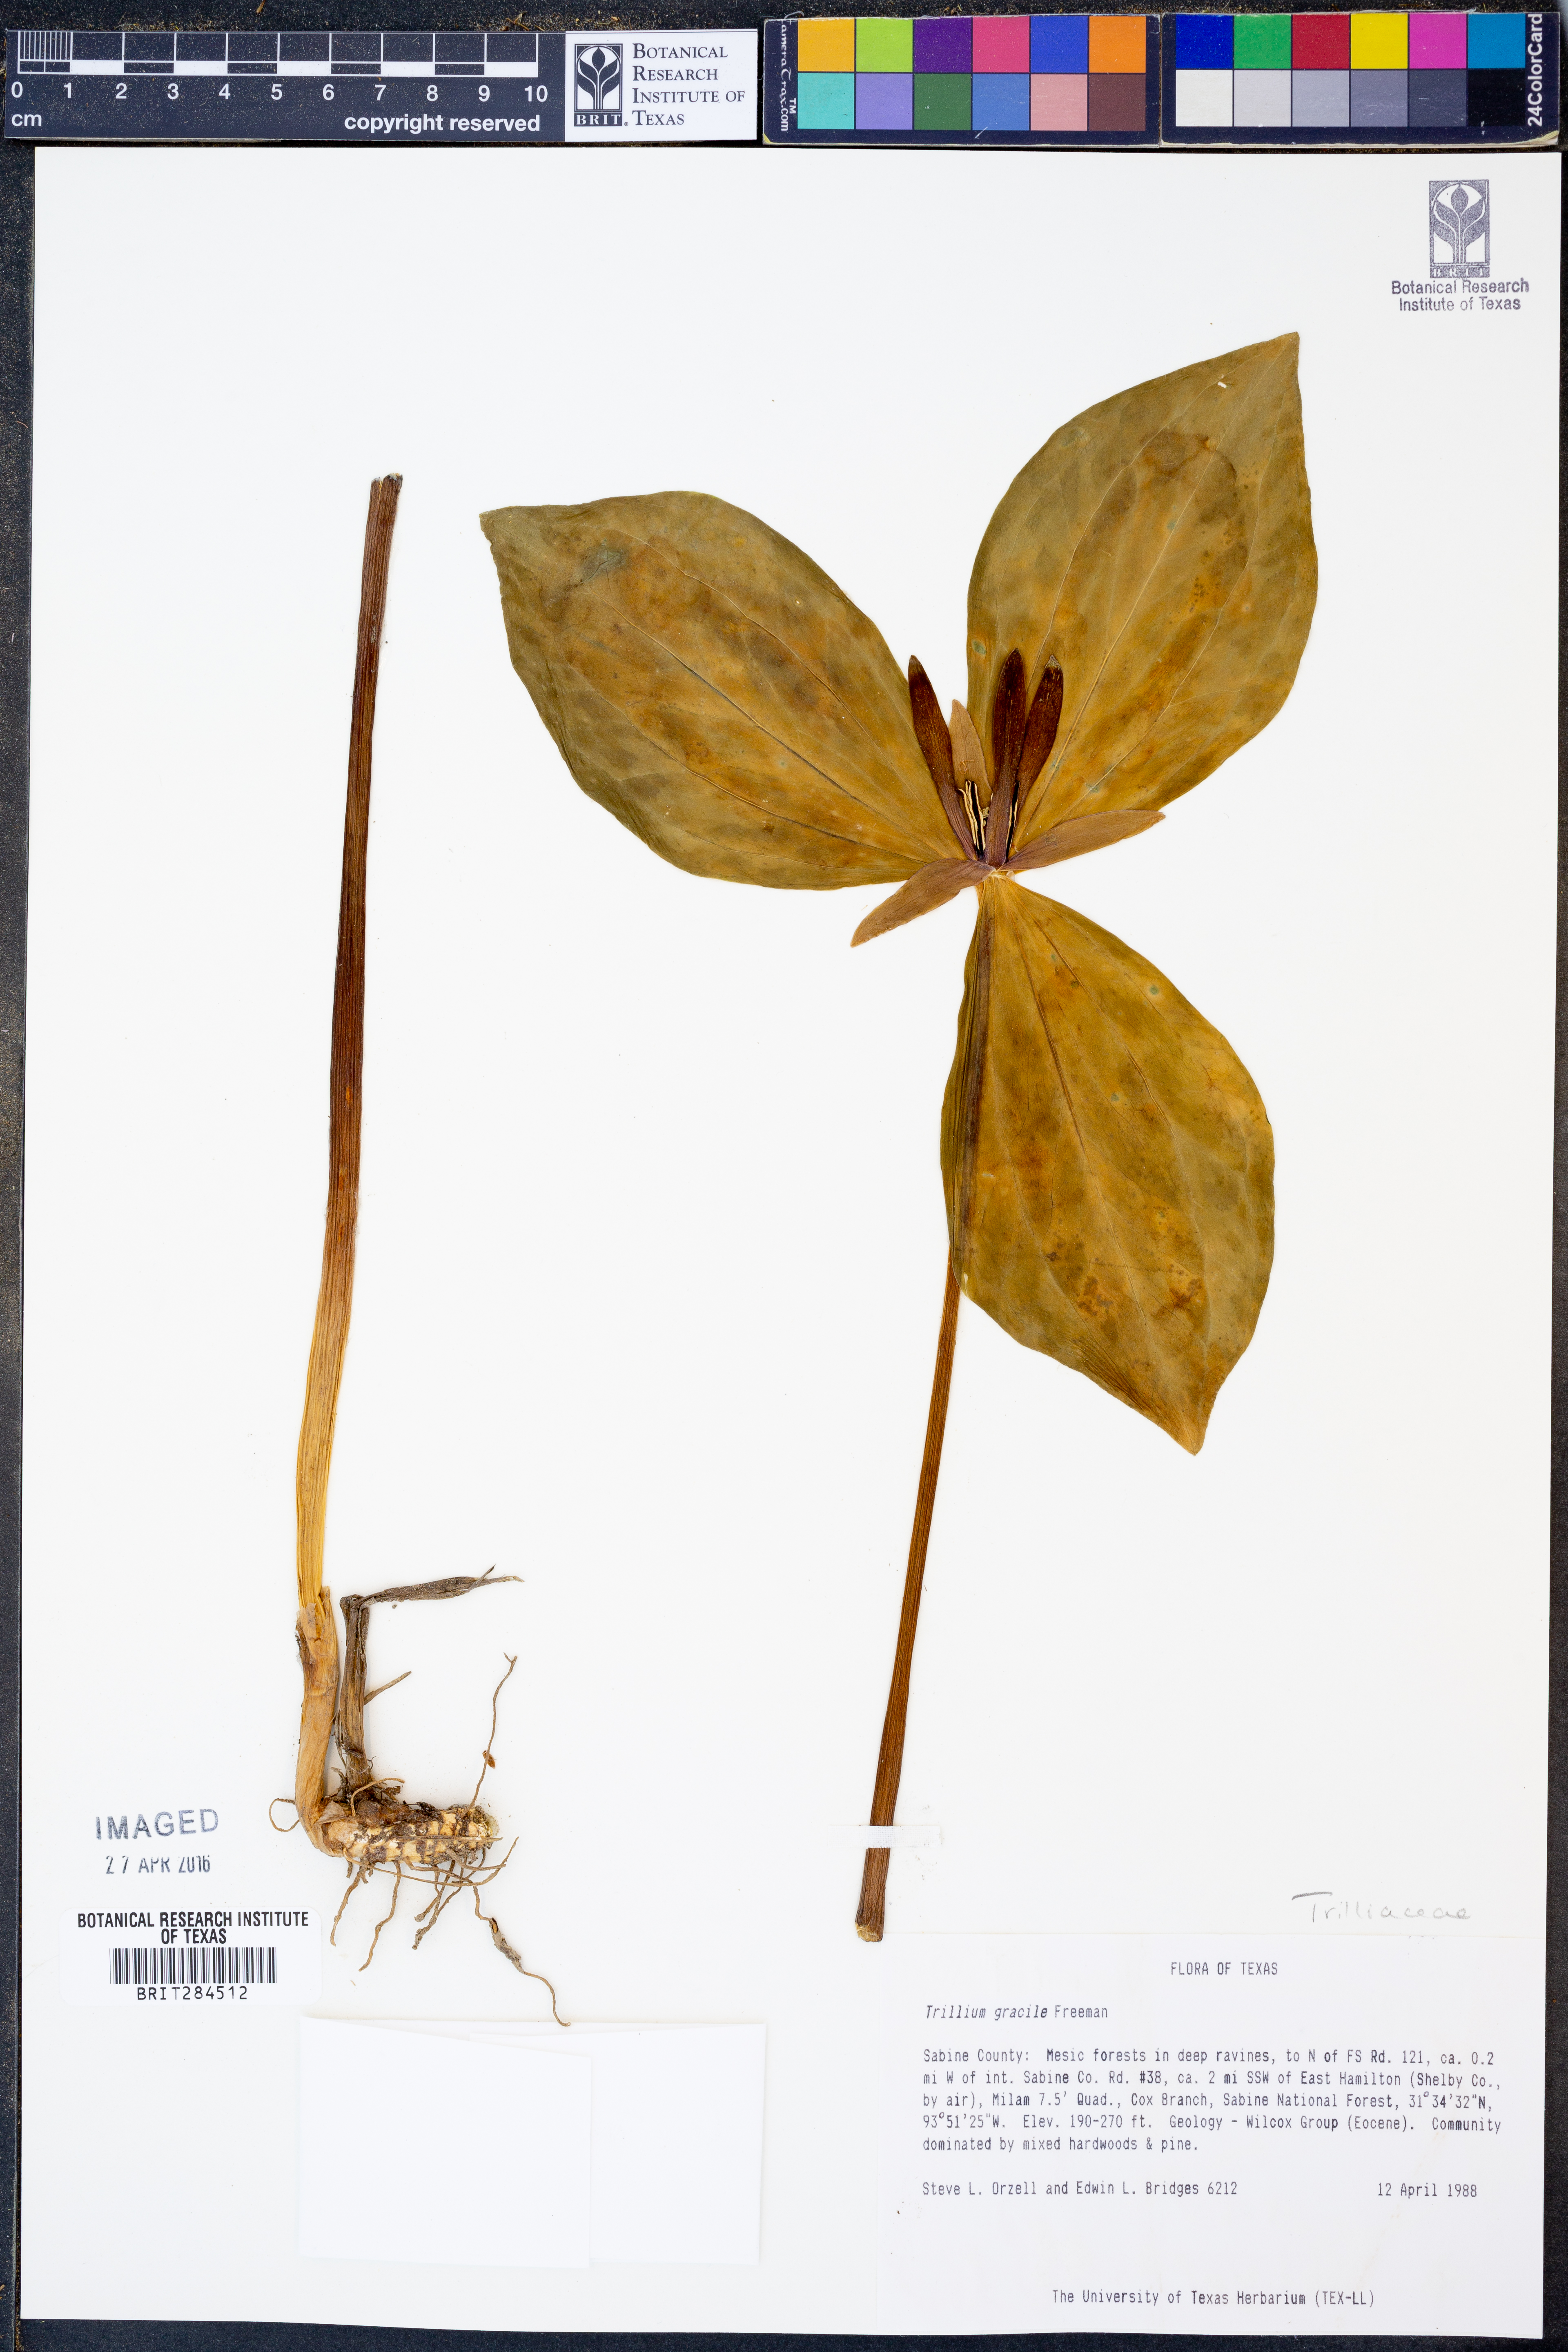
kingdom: Plantae
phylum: Tracheophyta
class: Liliopsida
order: Liliales
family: Melanthiaceae
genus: Trillium
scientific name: Trillium gracile
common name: Graceful trillium
